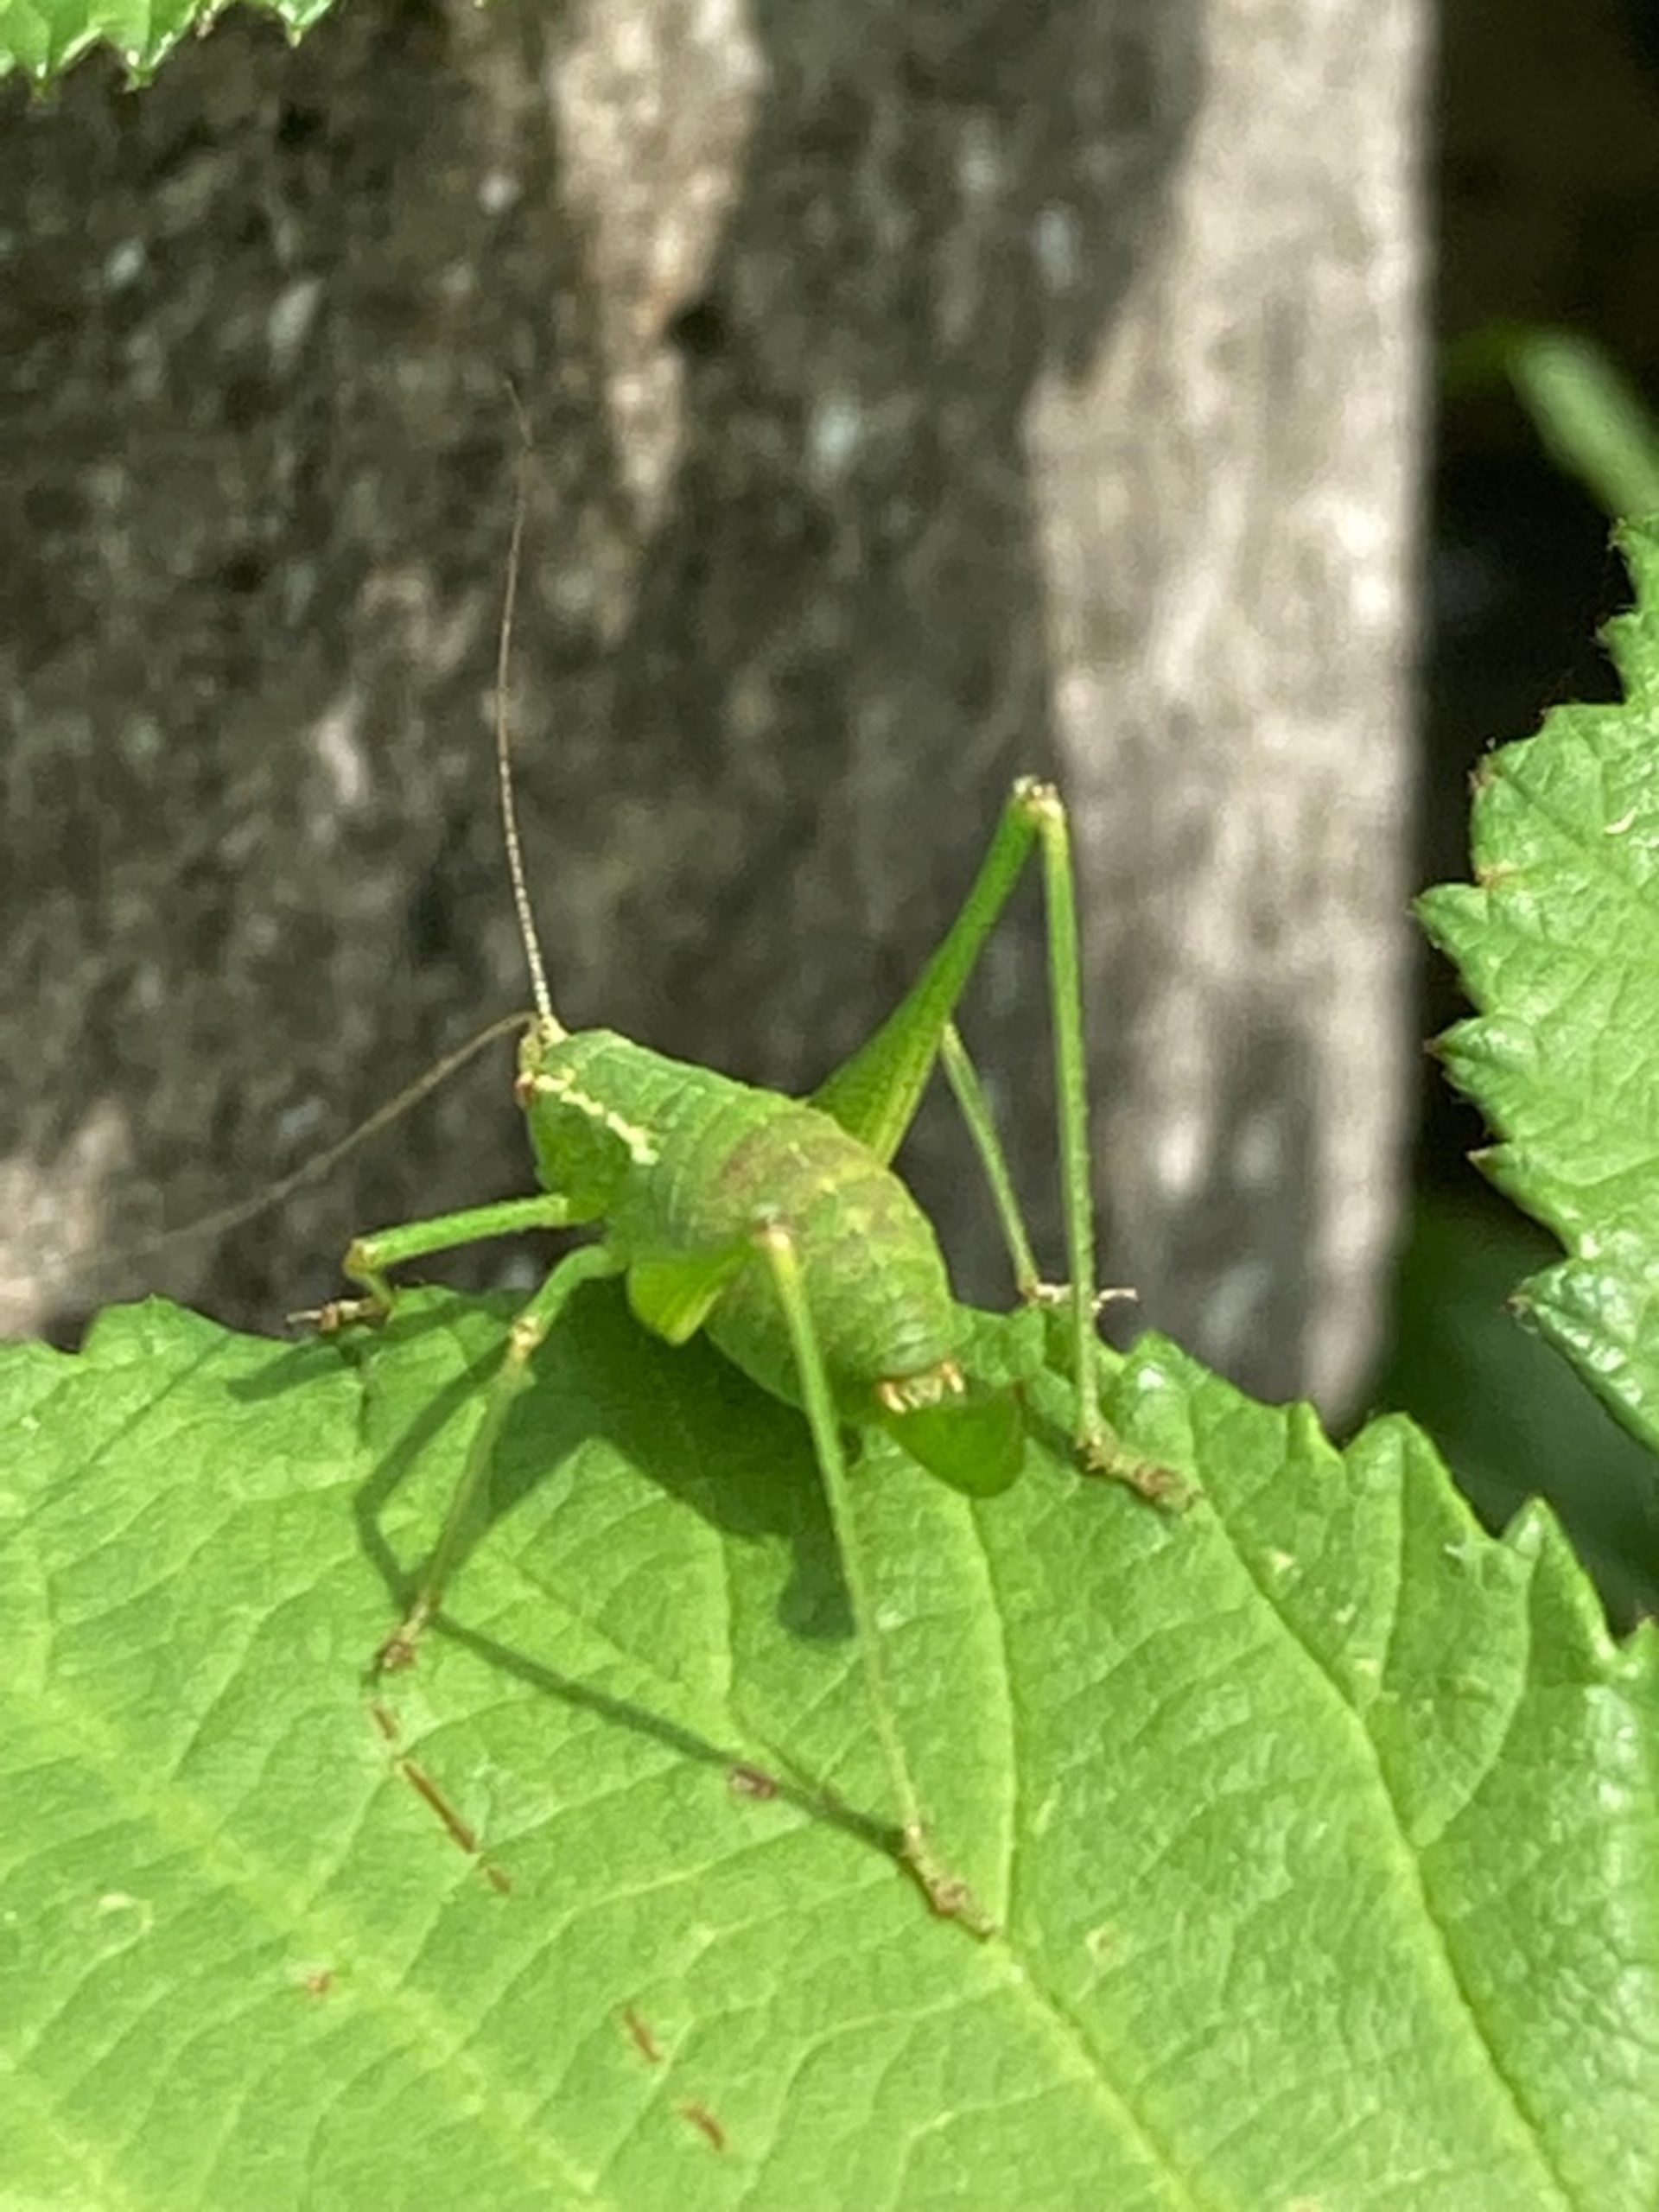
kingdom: Animalia
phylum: Arthropoda
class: Insecta
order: Orthoptera
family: Tettigoniidae
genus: Leptophyes
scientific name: Leptophyes punctatissima
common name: Krumknivgræshoppe
